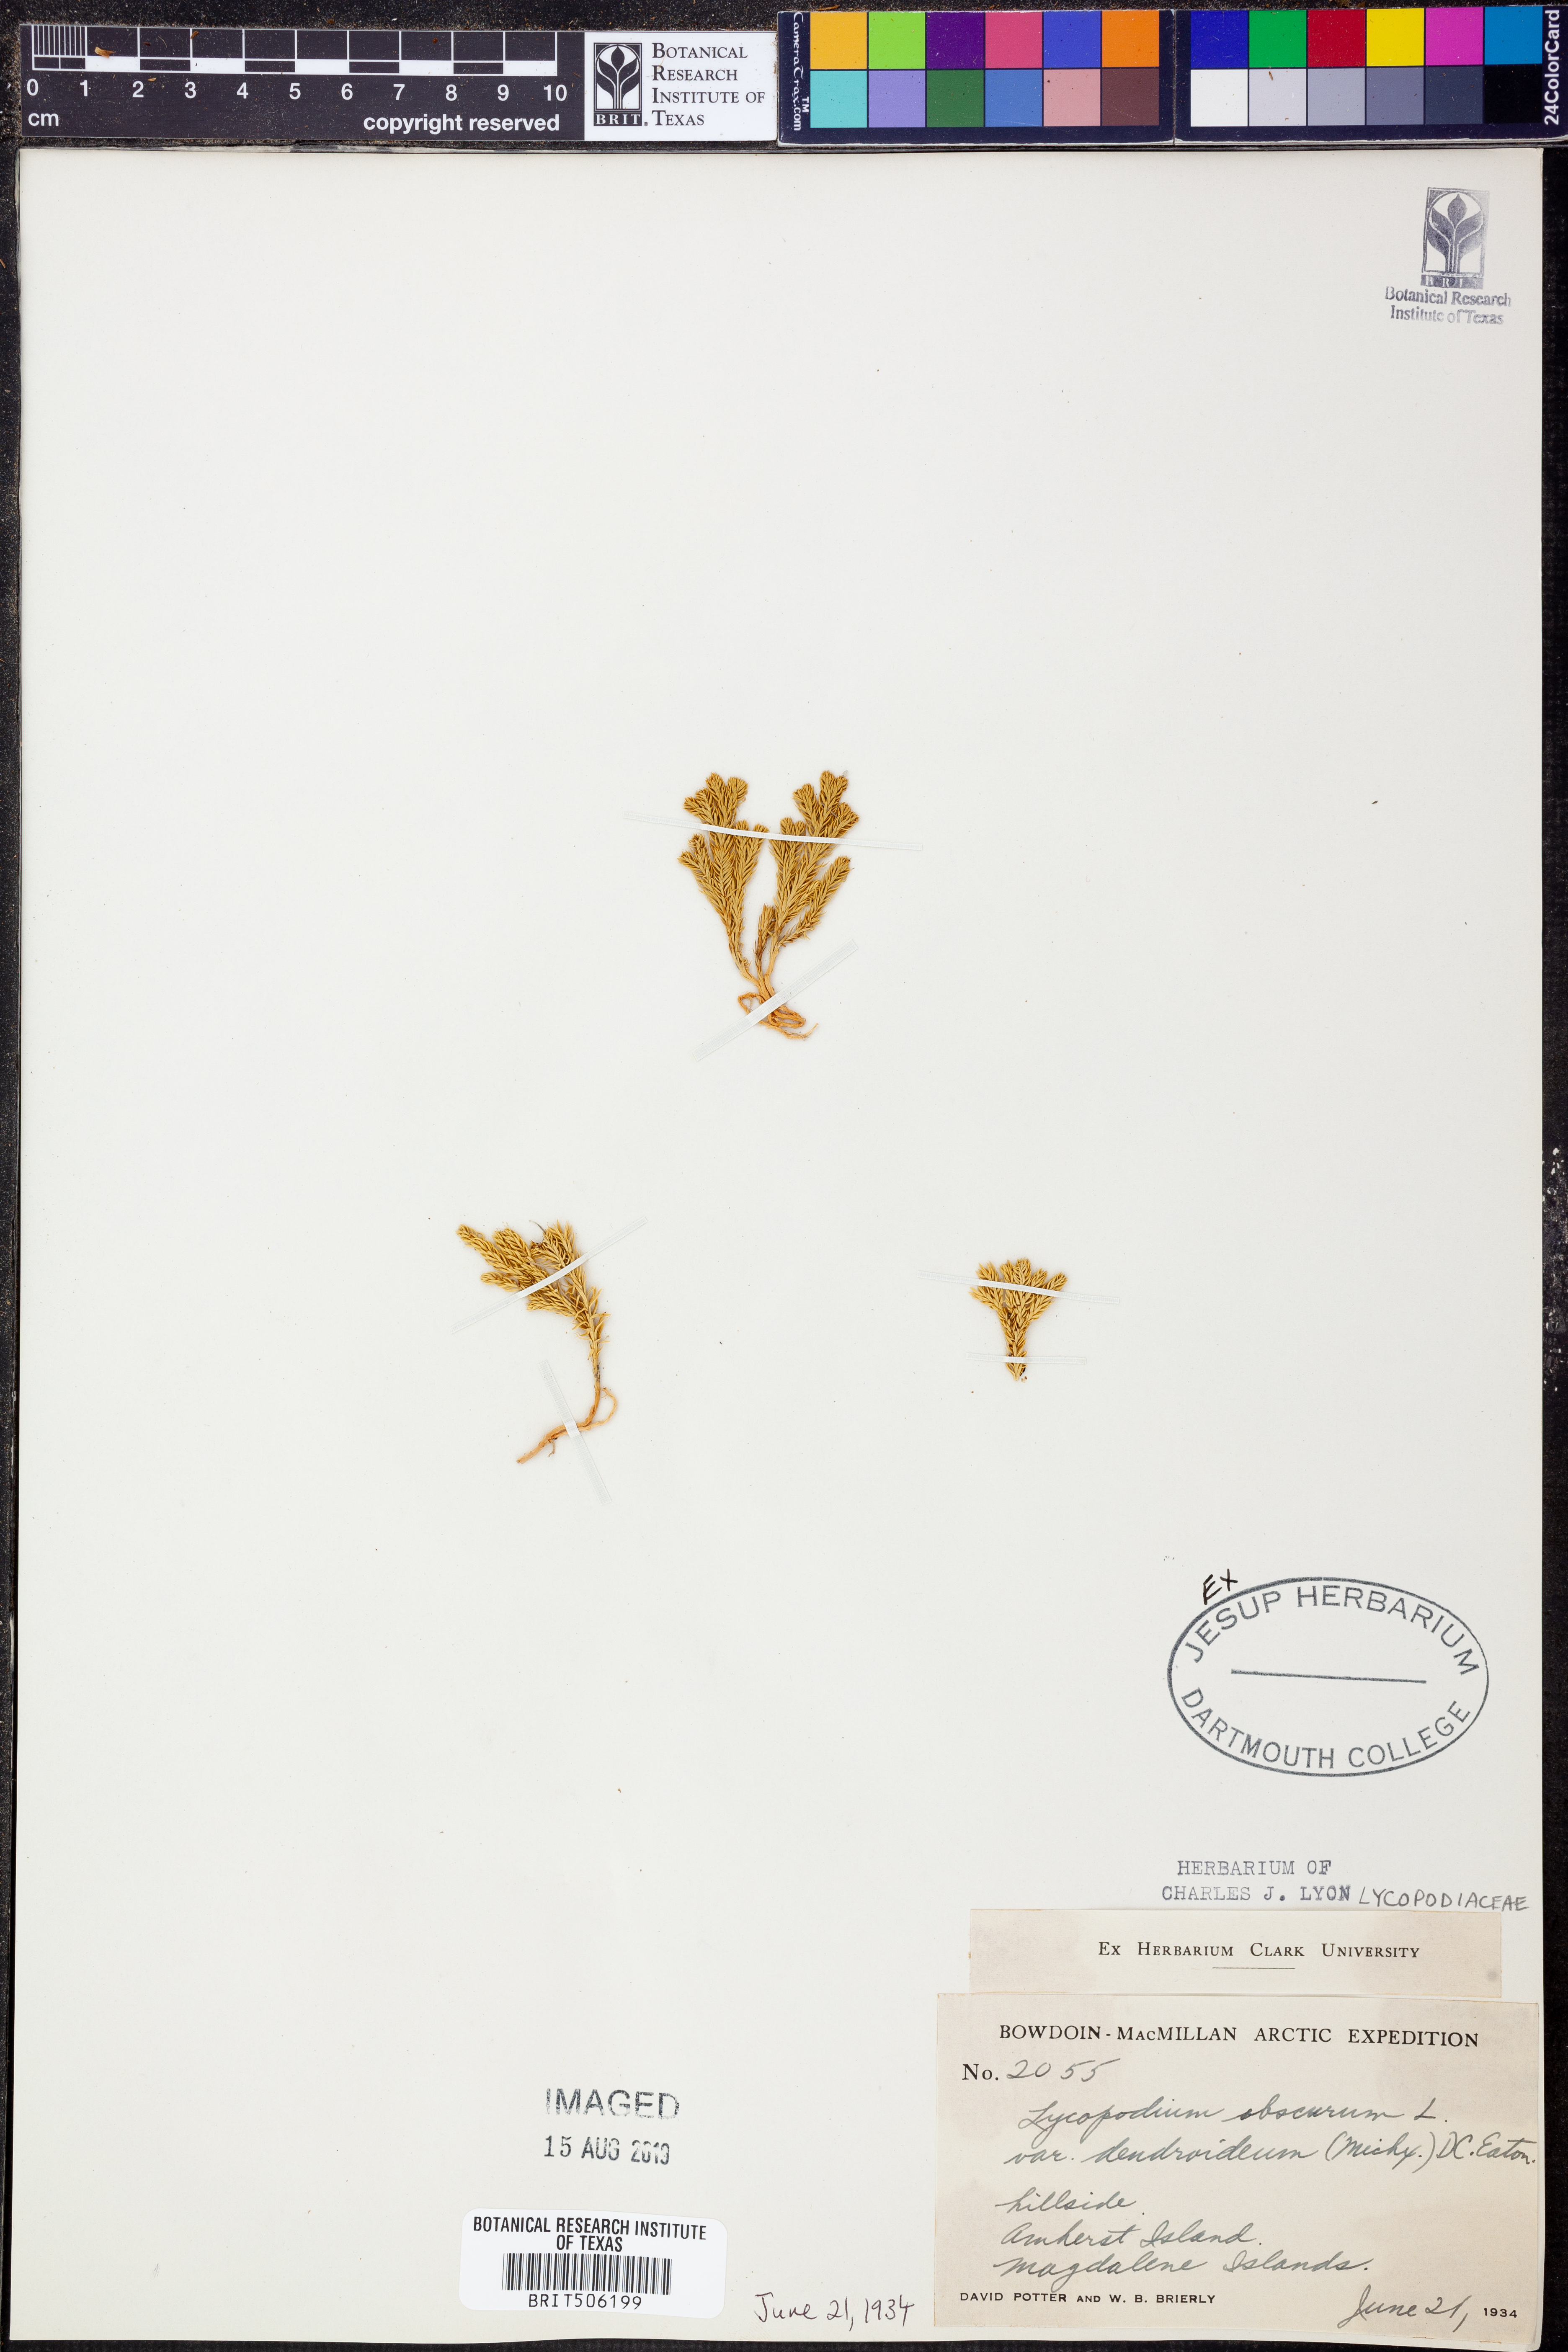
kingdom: Plantae
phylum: Tracheophyta
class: Lycopodiopsida
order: Lycopodiales
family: Lycopodiaceae
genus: Dendrolycopodium
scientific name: Dendrolycopodium dendroideum
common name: Northern tree-clubmoss
